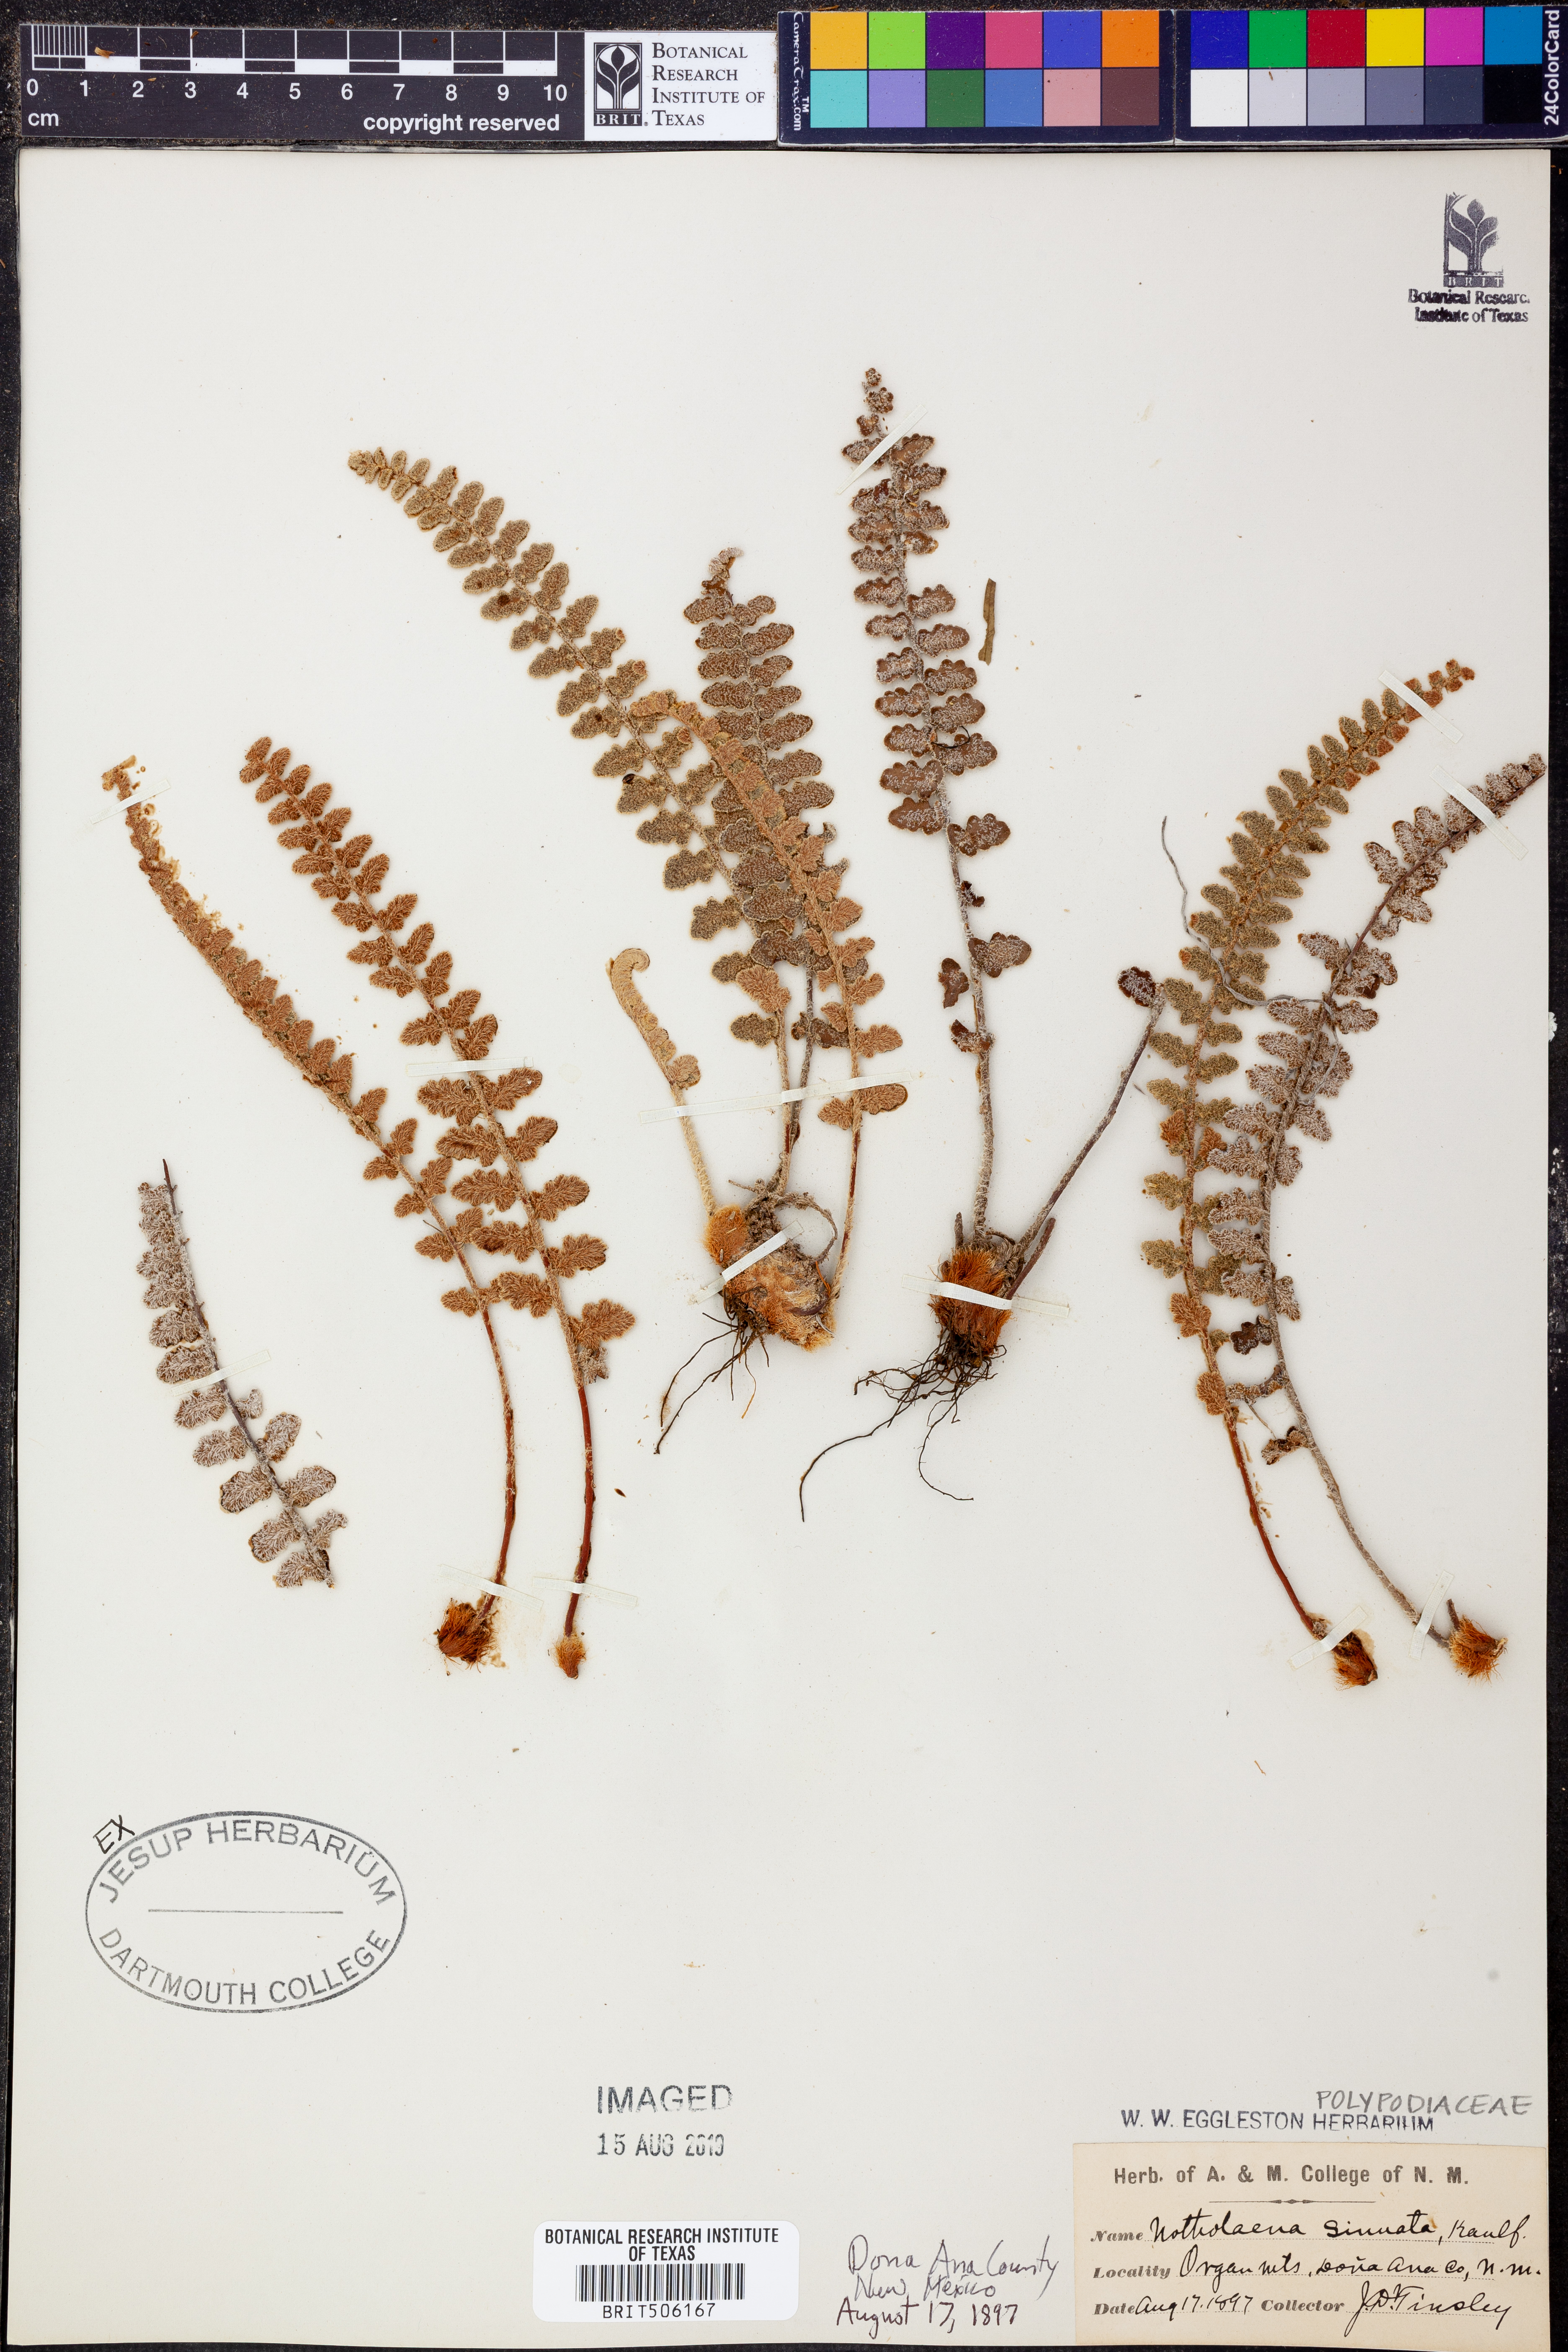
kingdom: Plantae
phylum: Tracheophyta
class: Polypodiopsida
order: Polypodiales
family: Pteridaceae
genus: Astrolepis
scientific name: Astrolepis sinuata
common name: Wavy scaly cloakfern
